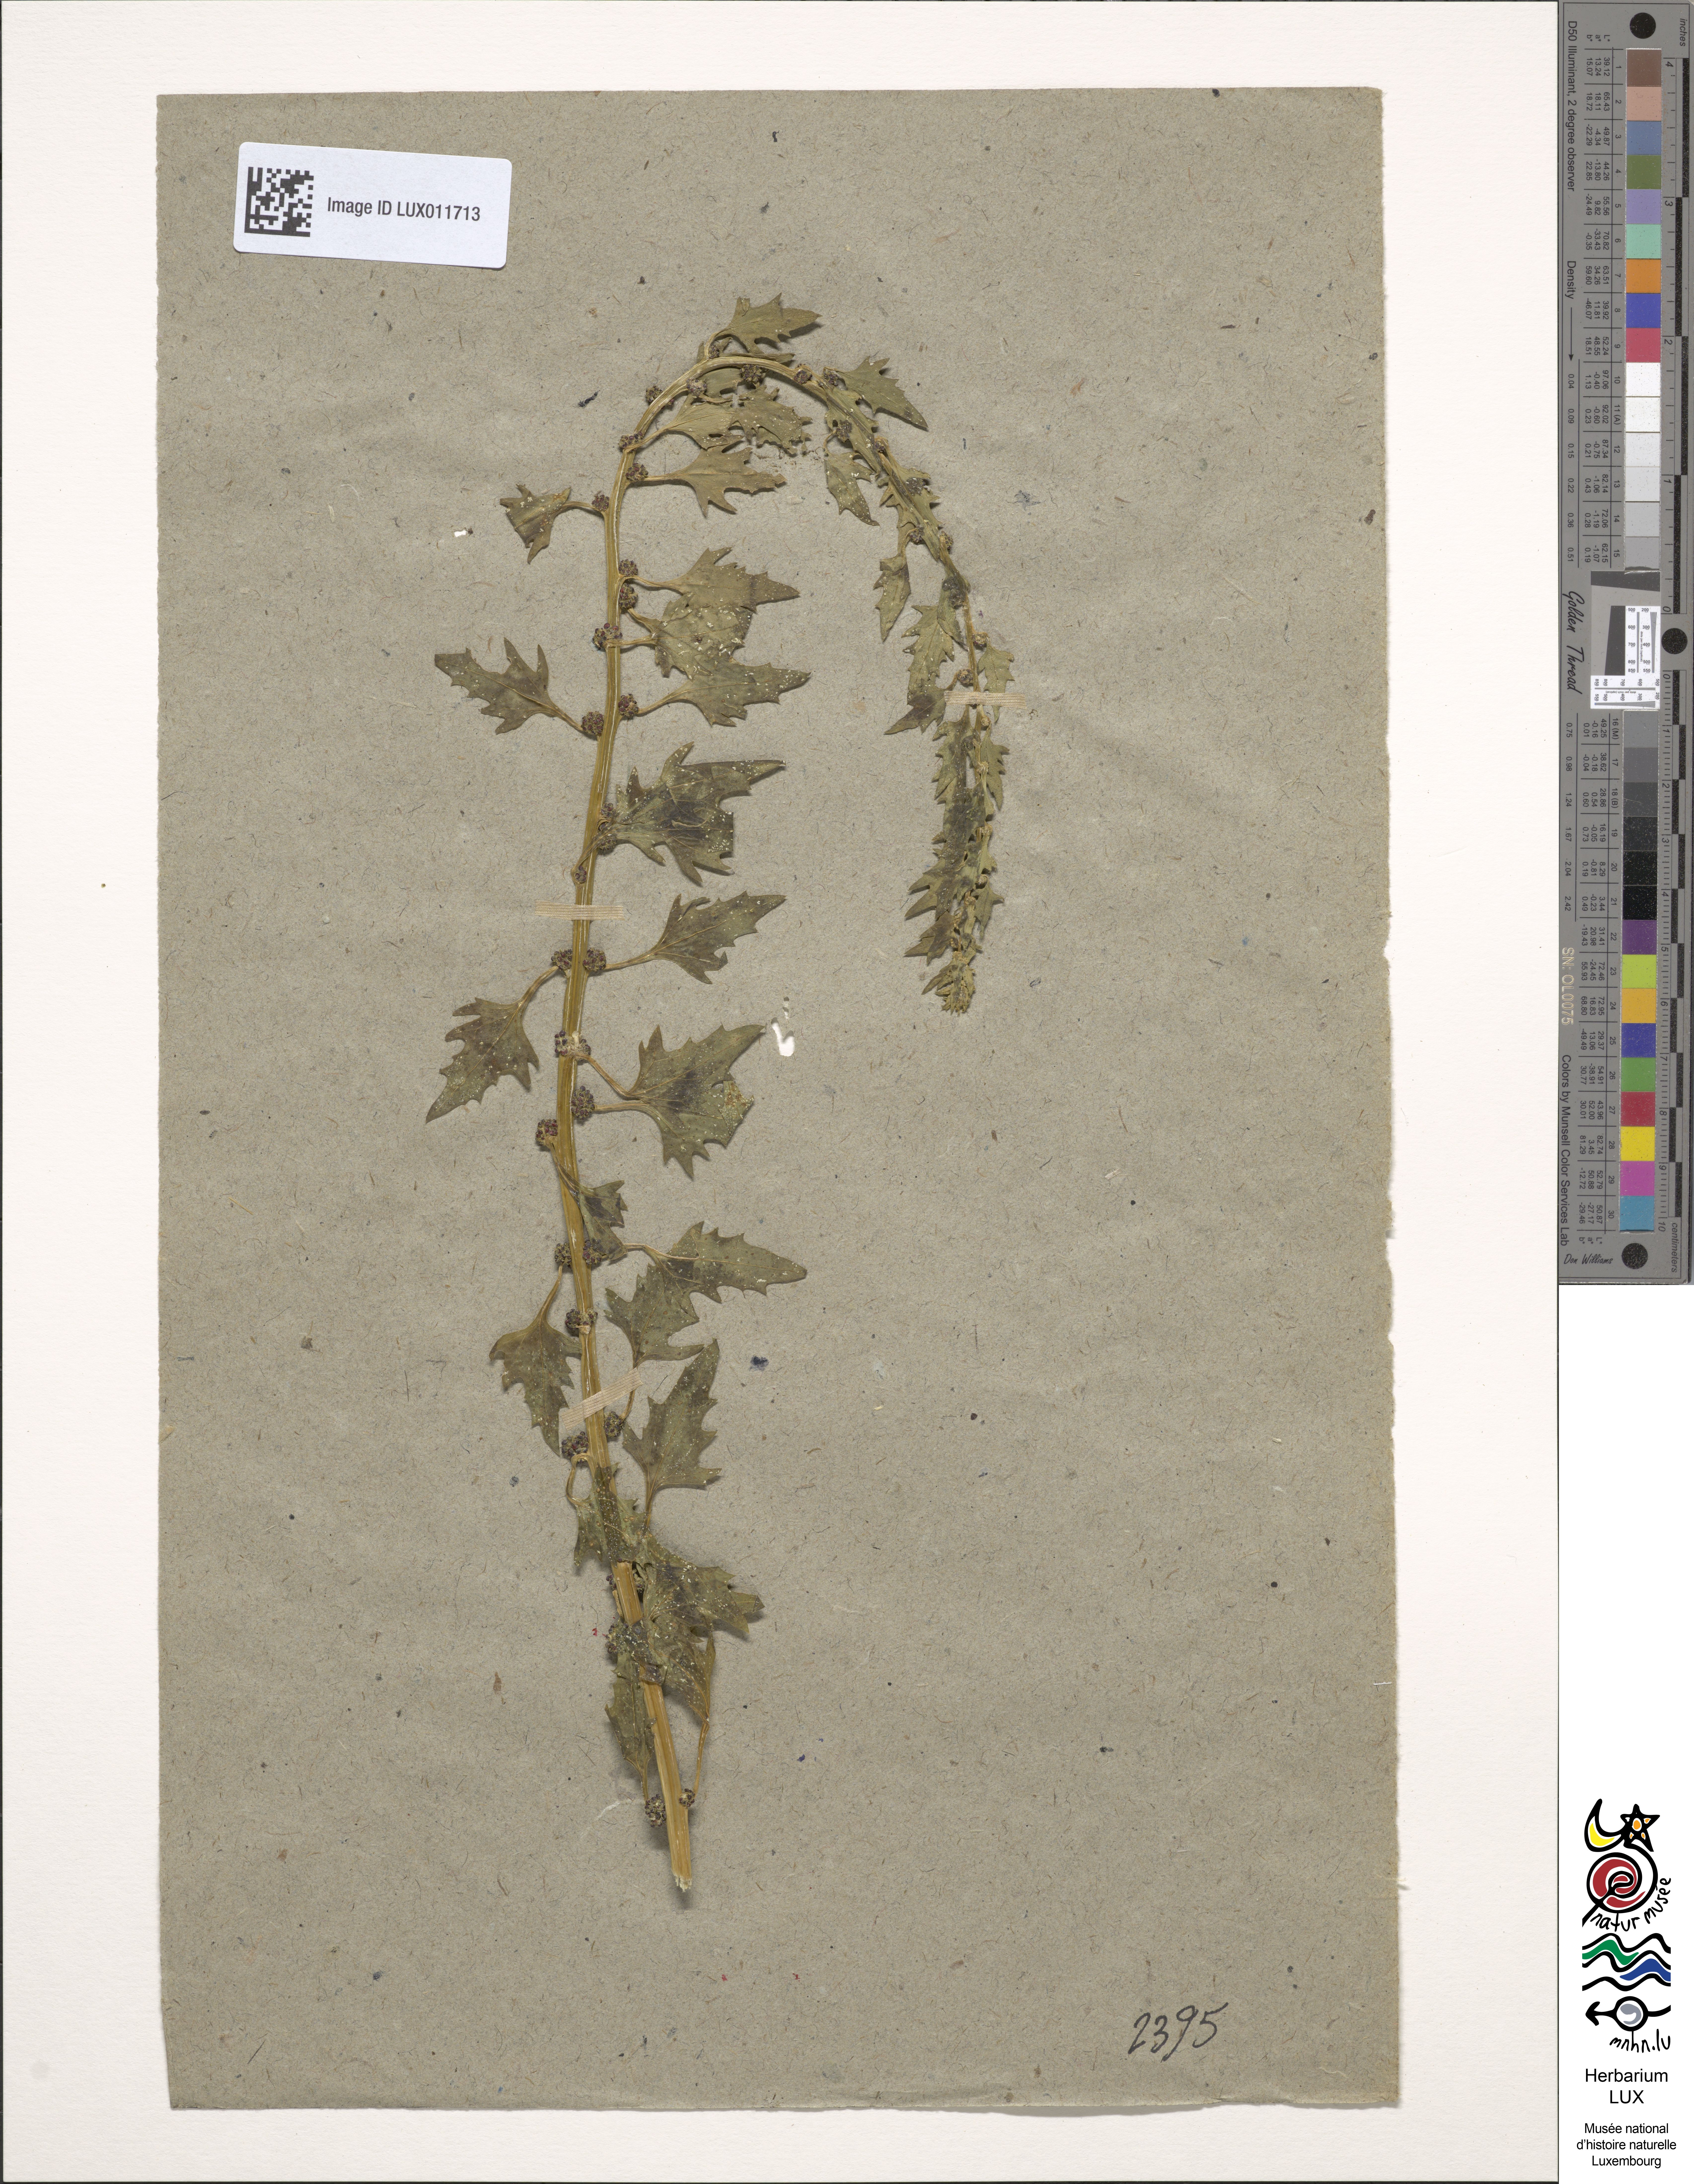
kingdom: Plantae
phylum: Tracheophyta
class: Magnoliopsida
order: Caryophyllales
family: Amaranthaceae
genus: Blitum
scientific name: Blitum virgatum
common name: Strawberry goosefoot
